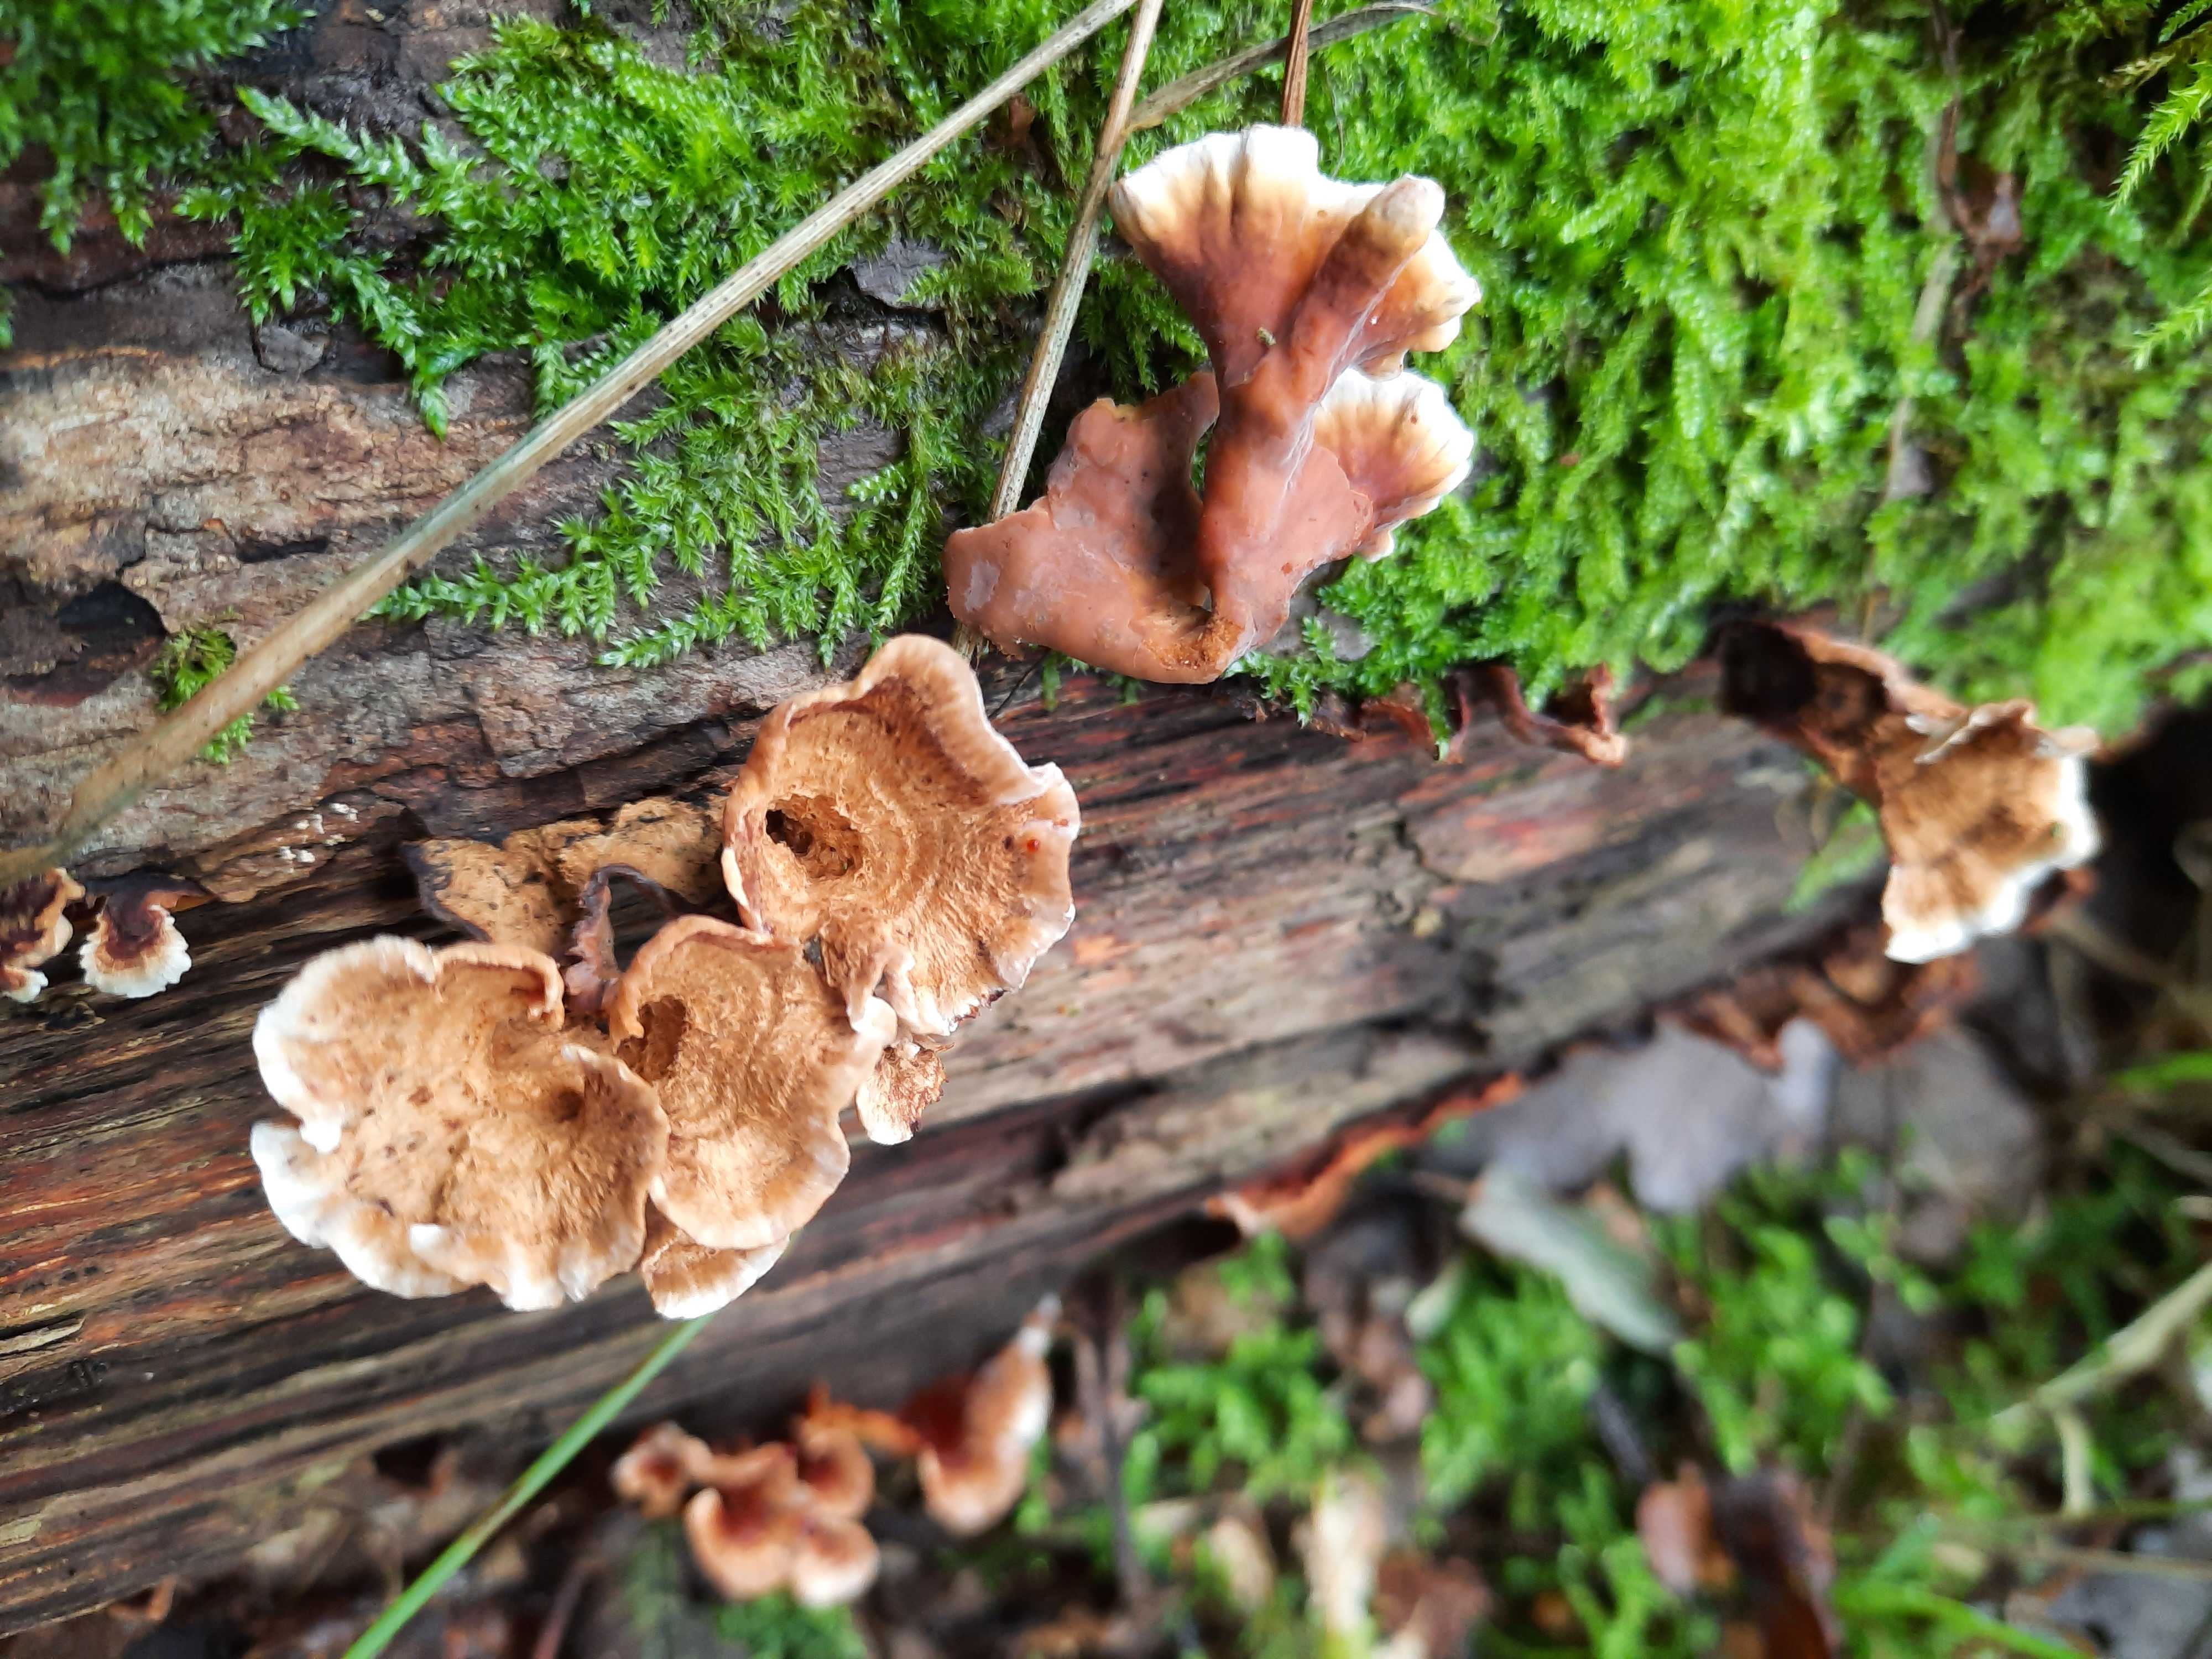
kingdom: Fungi
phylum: Basidiomycota
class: Agaricomycetes
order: Russulales
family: Stereaceae
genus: Stereum
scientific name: Stereum gausapatum
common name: tynd lædersvamp
